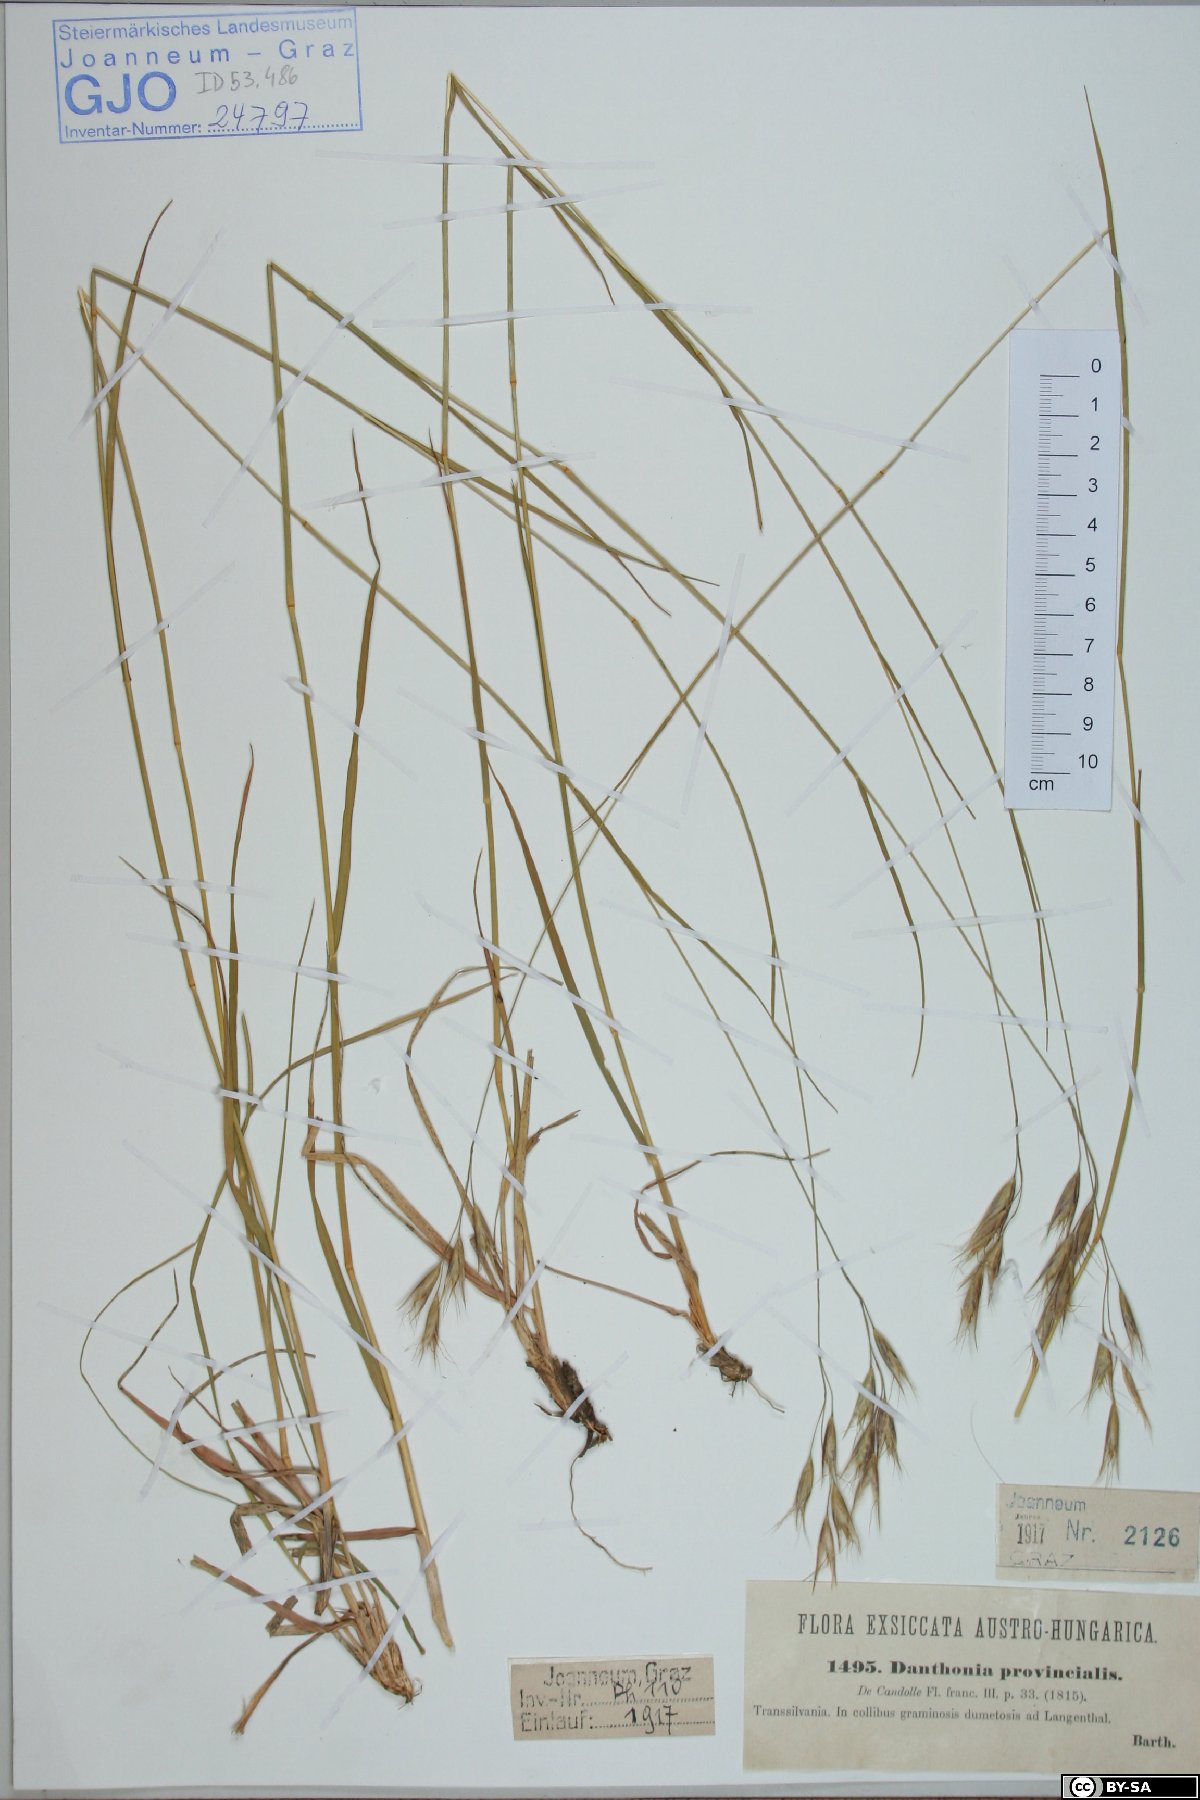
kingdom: Plantae
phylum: Tracheophyta
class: Liliopsida
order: Poales
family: Poaceae
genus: Danthonia
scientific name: Danthonia alpina
